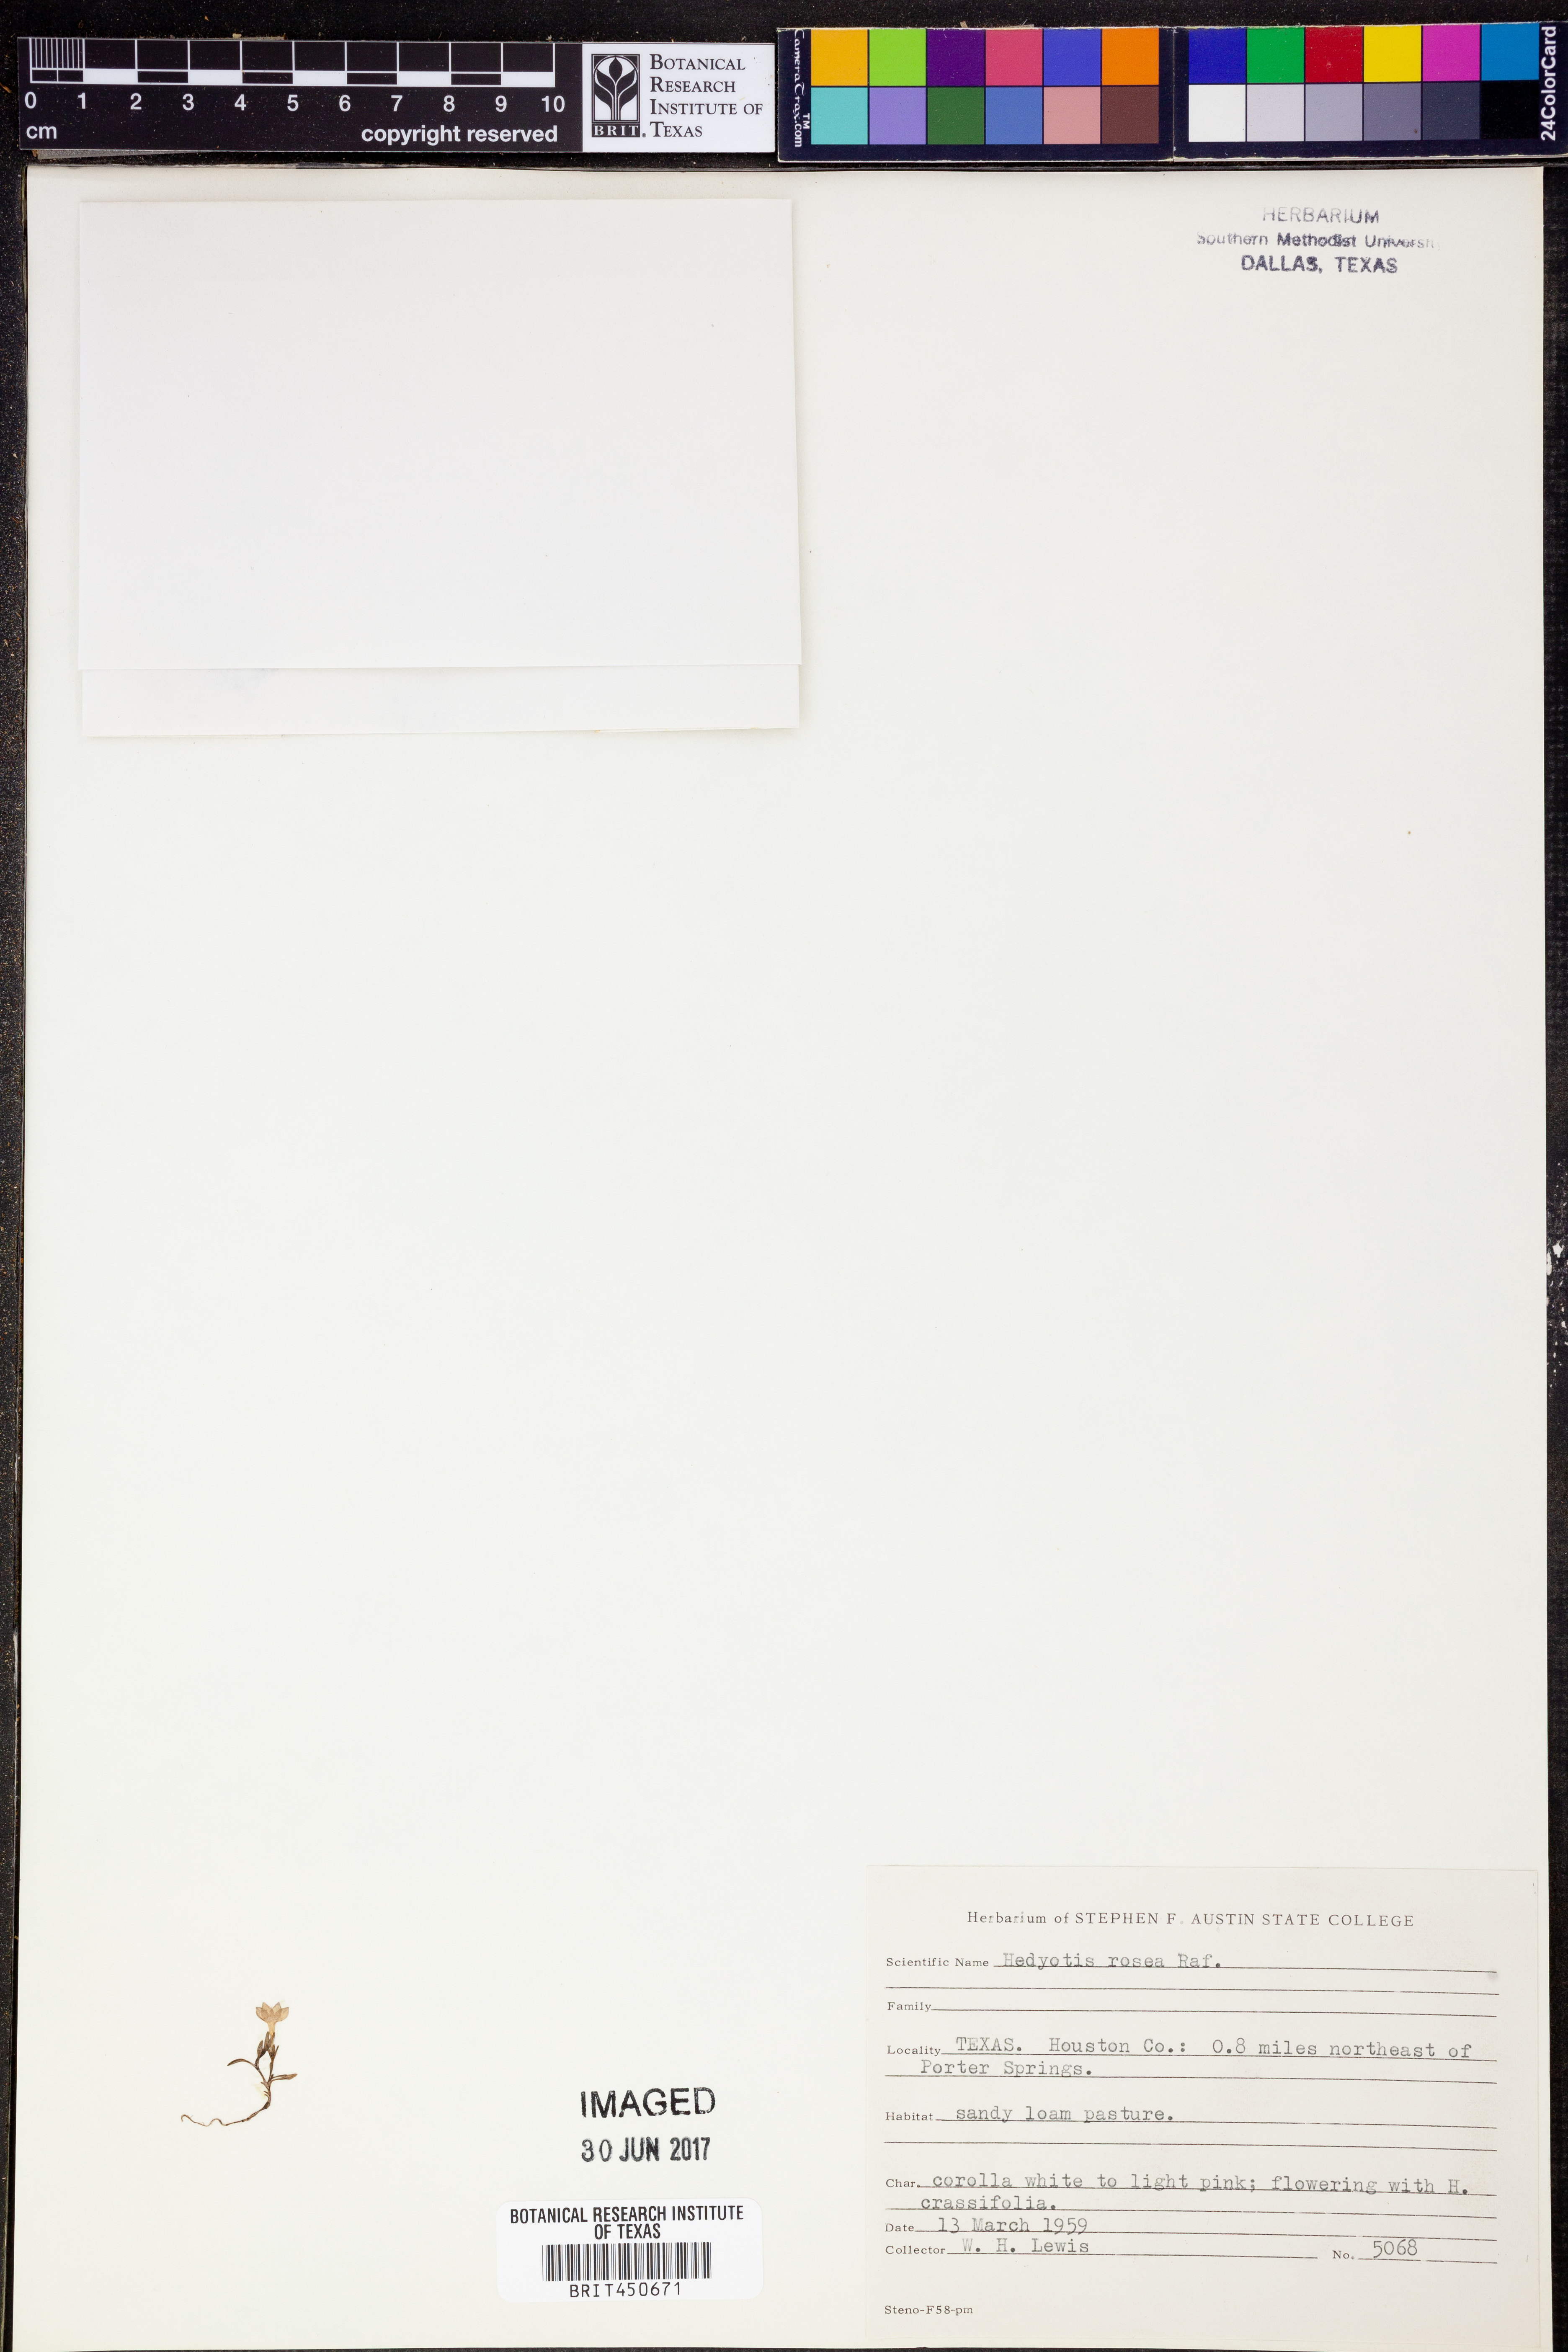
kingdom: Plantae
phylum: Tracheophyta
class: Magnoliopsida
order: Gentianales
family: Rubiaceae
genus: Houstonia
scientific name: Houstonia rosea
